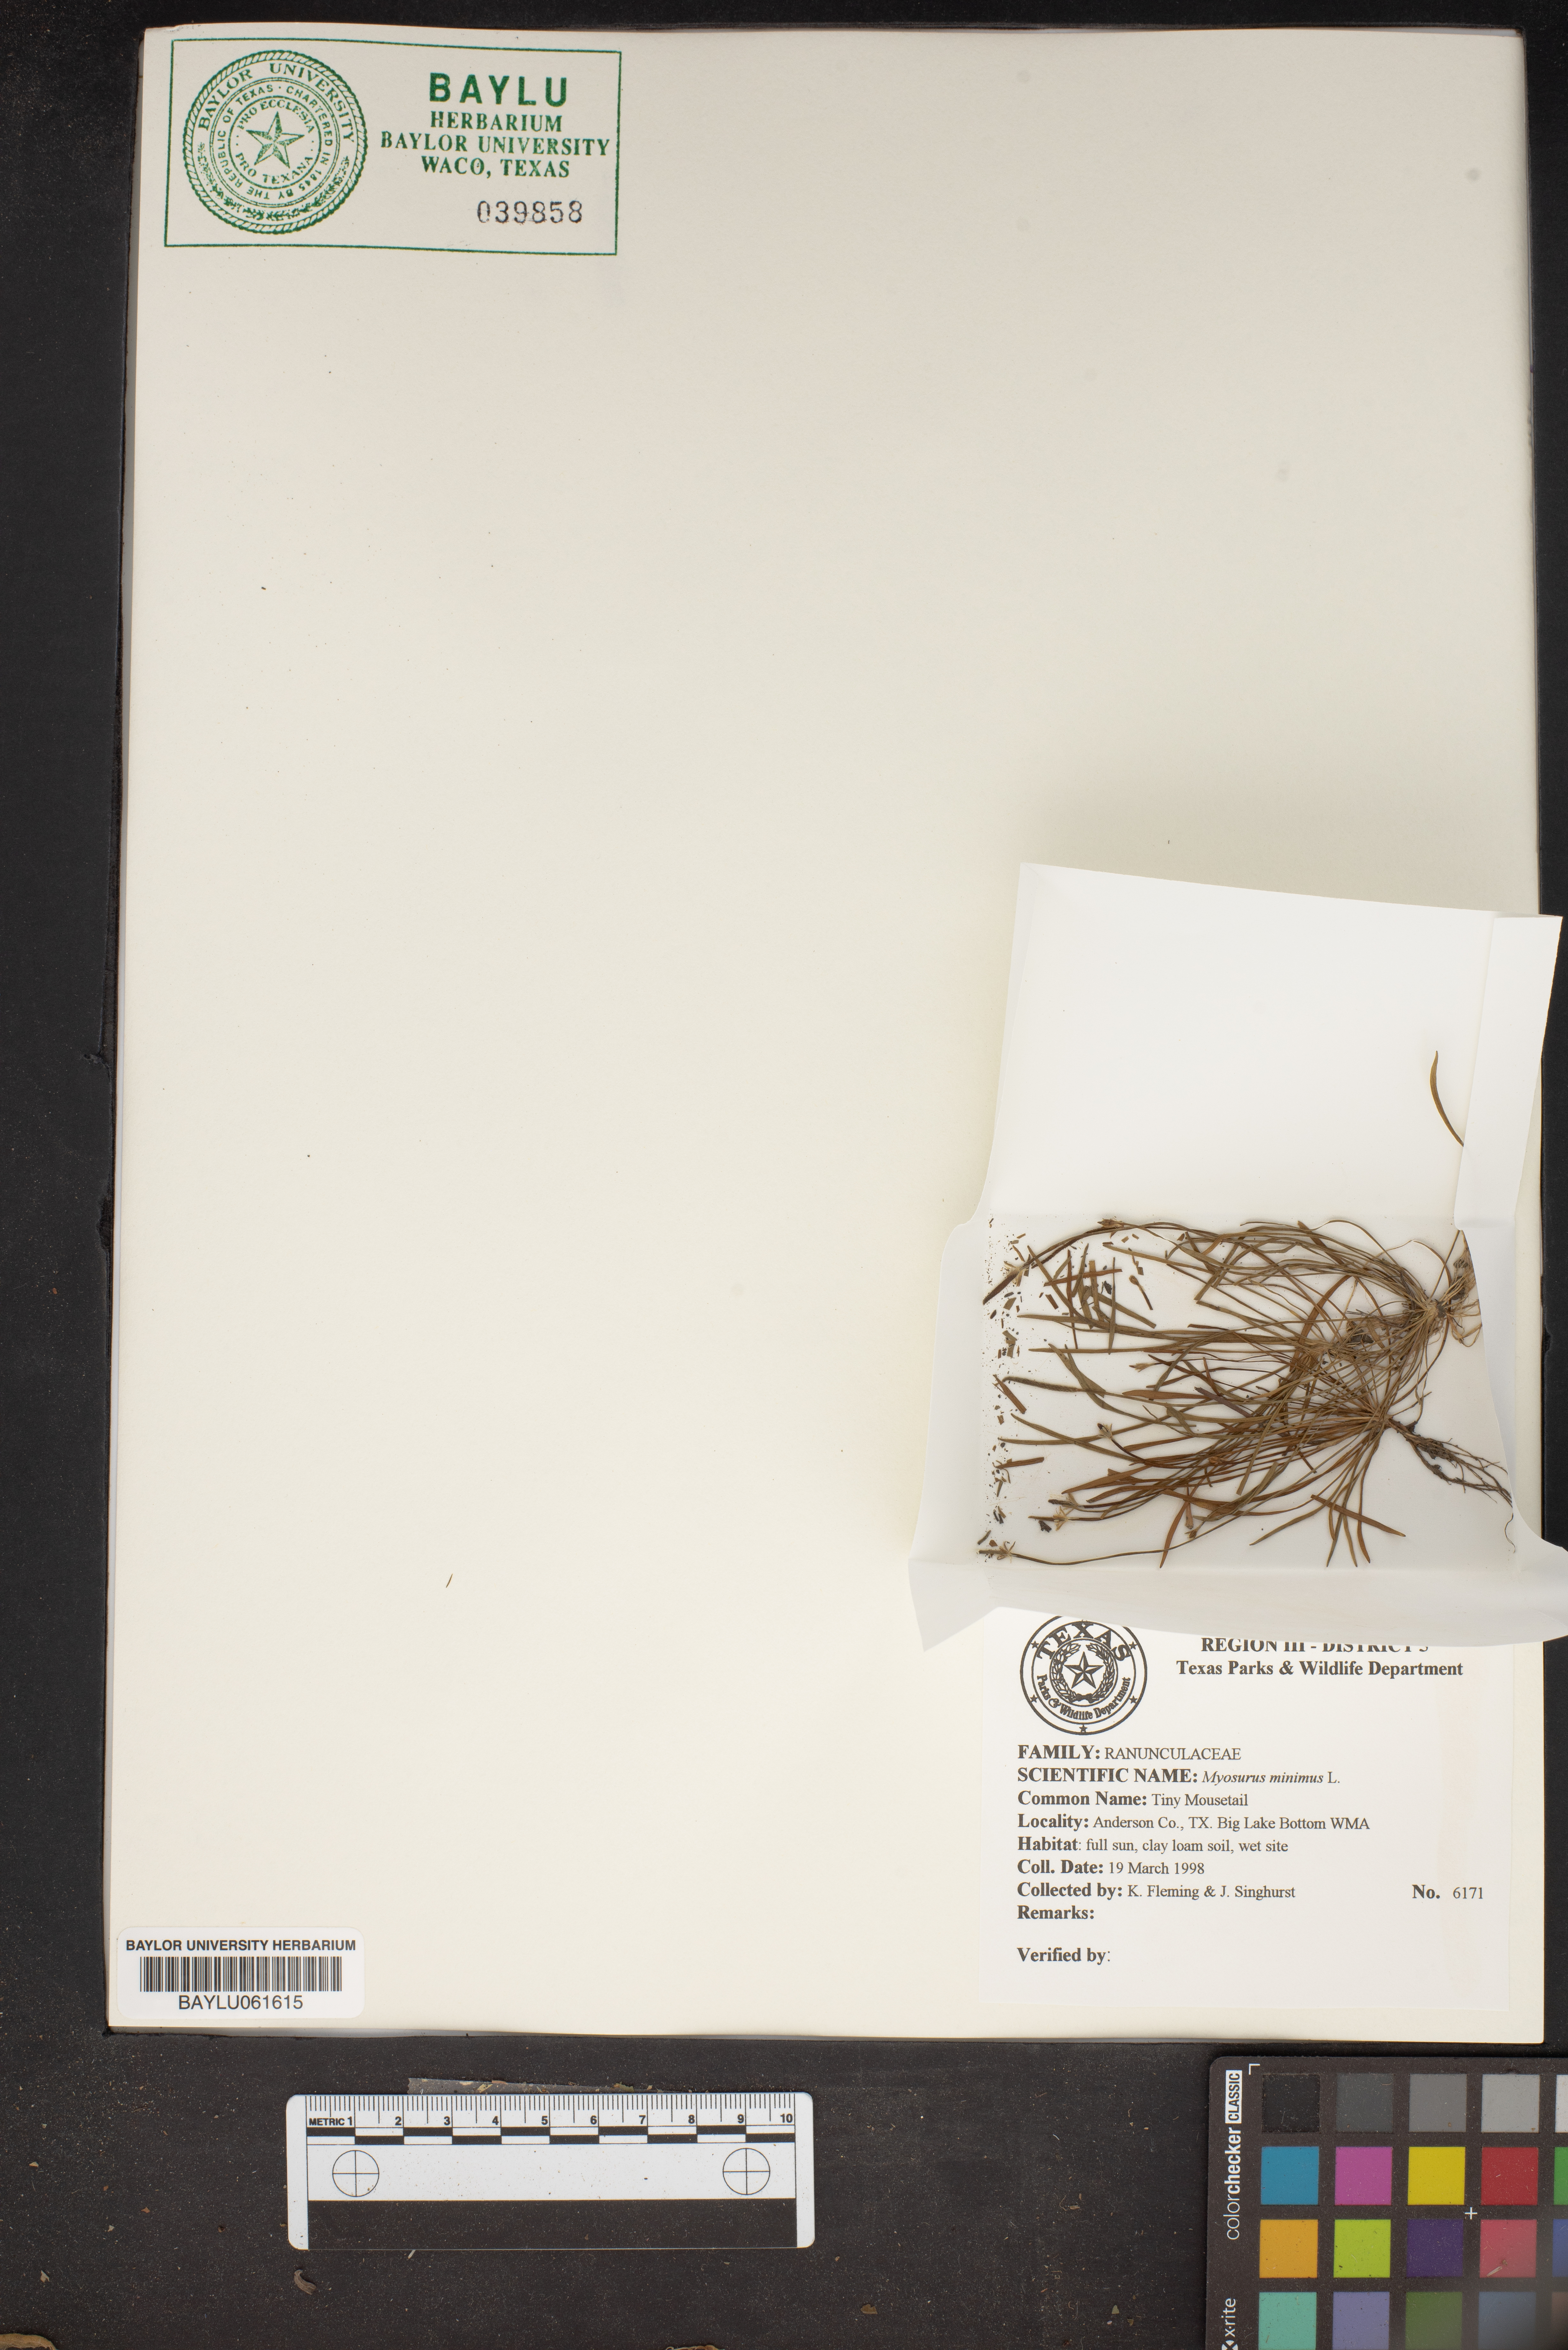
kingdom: Plantae
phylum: Tracheophyta
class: Magnoliopsida
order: Ranunculales
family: Ranunculaceae
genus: Myosurus
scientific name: Myosurus minimus
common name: Mousetail
